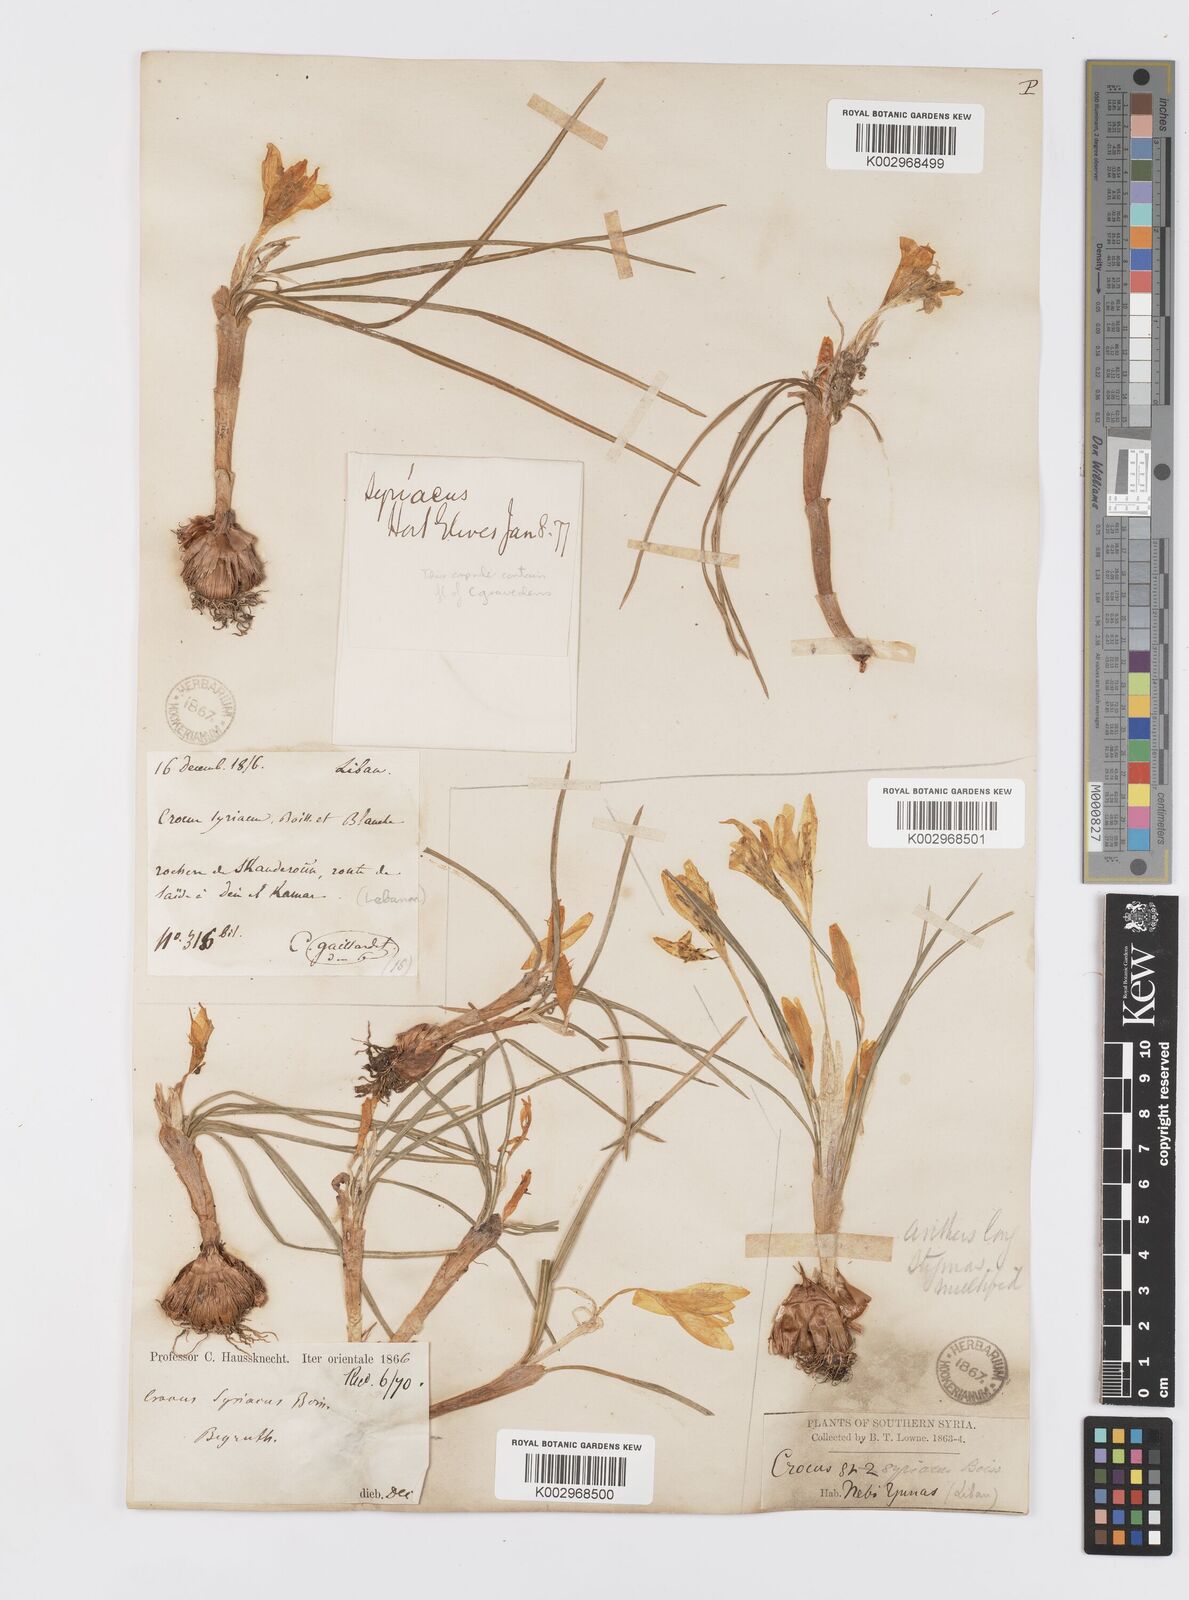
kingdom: Plantae
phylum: Tracheophyta
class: Liliopsida
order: Asparagales
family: Iridaceae
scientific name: Iridaceae
